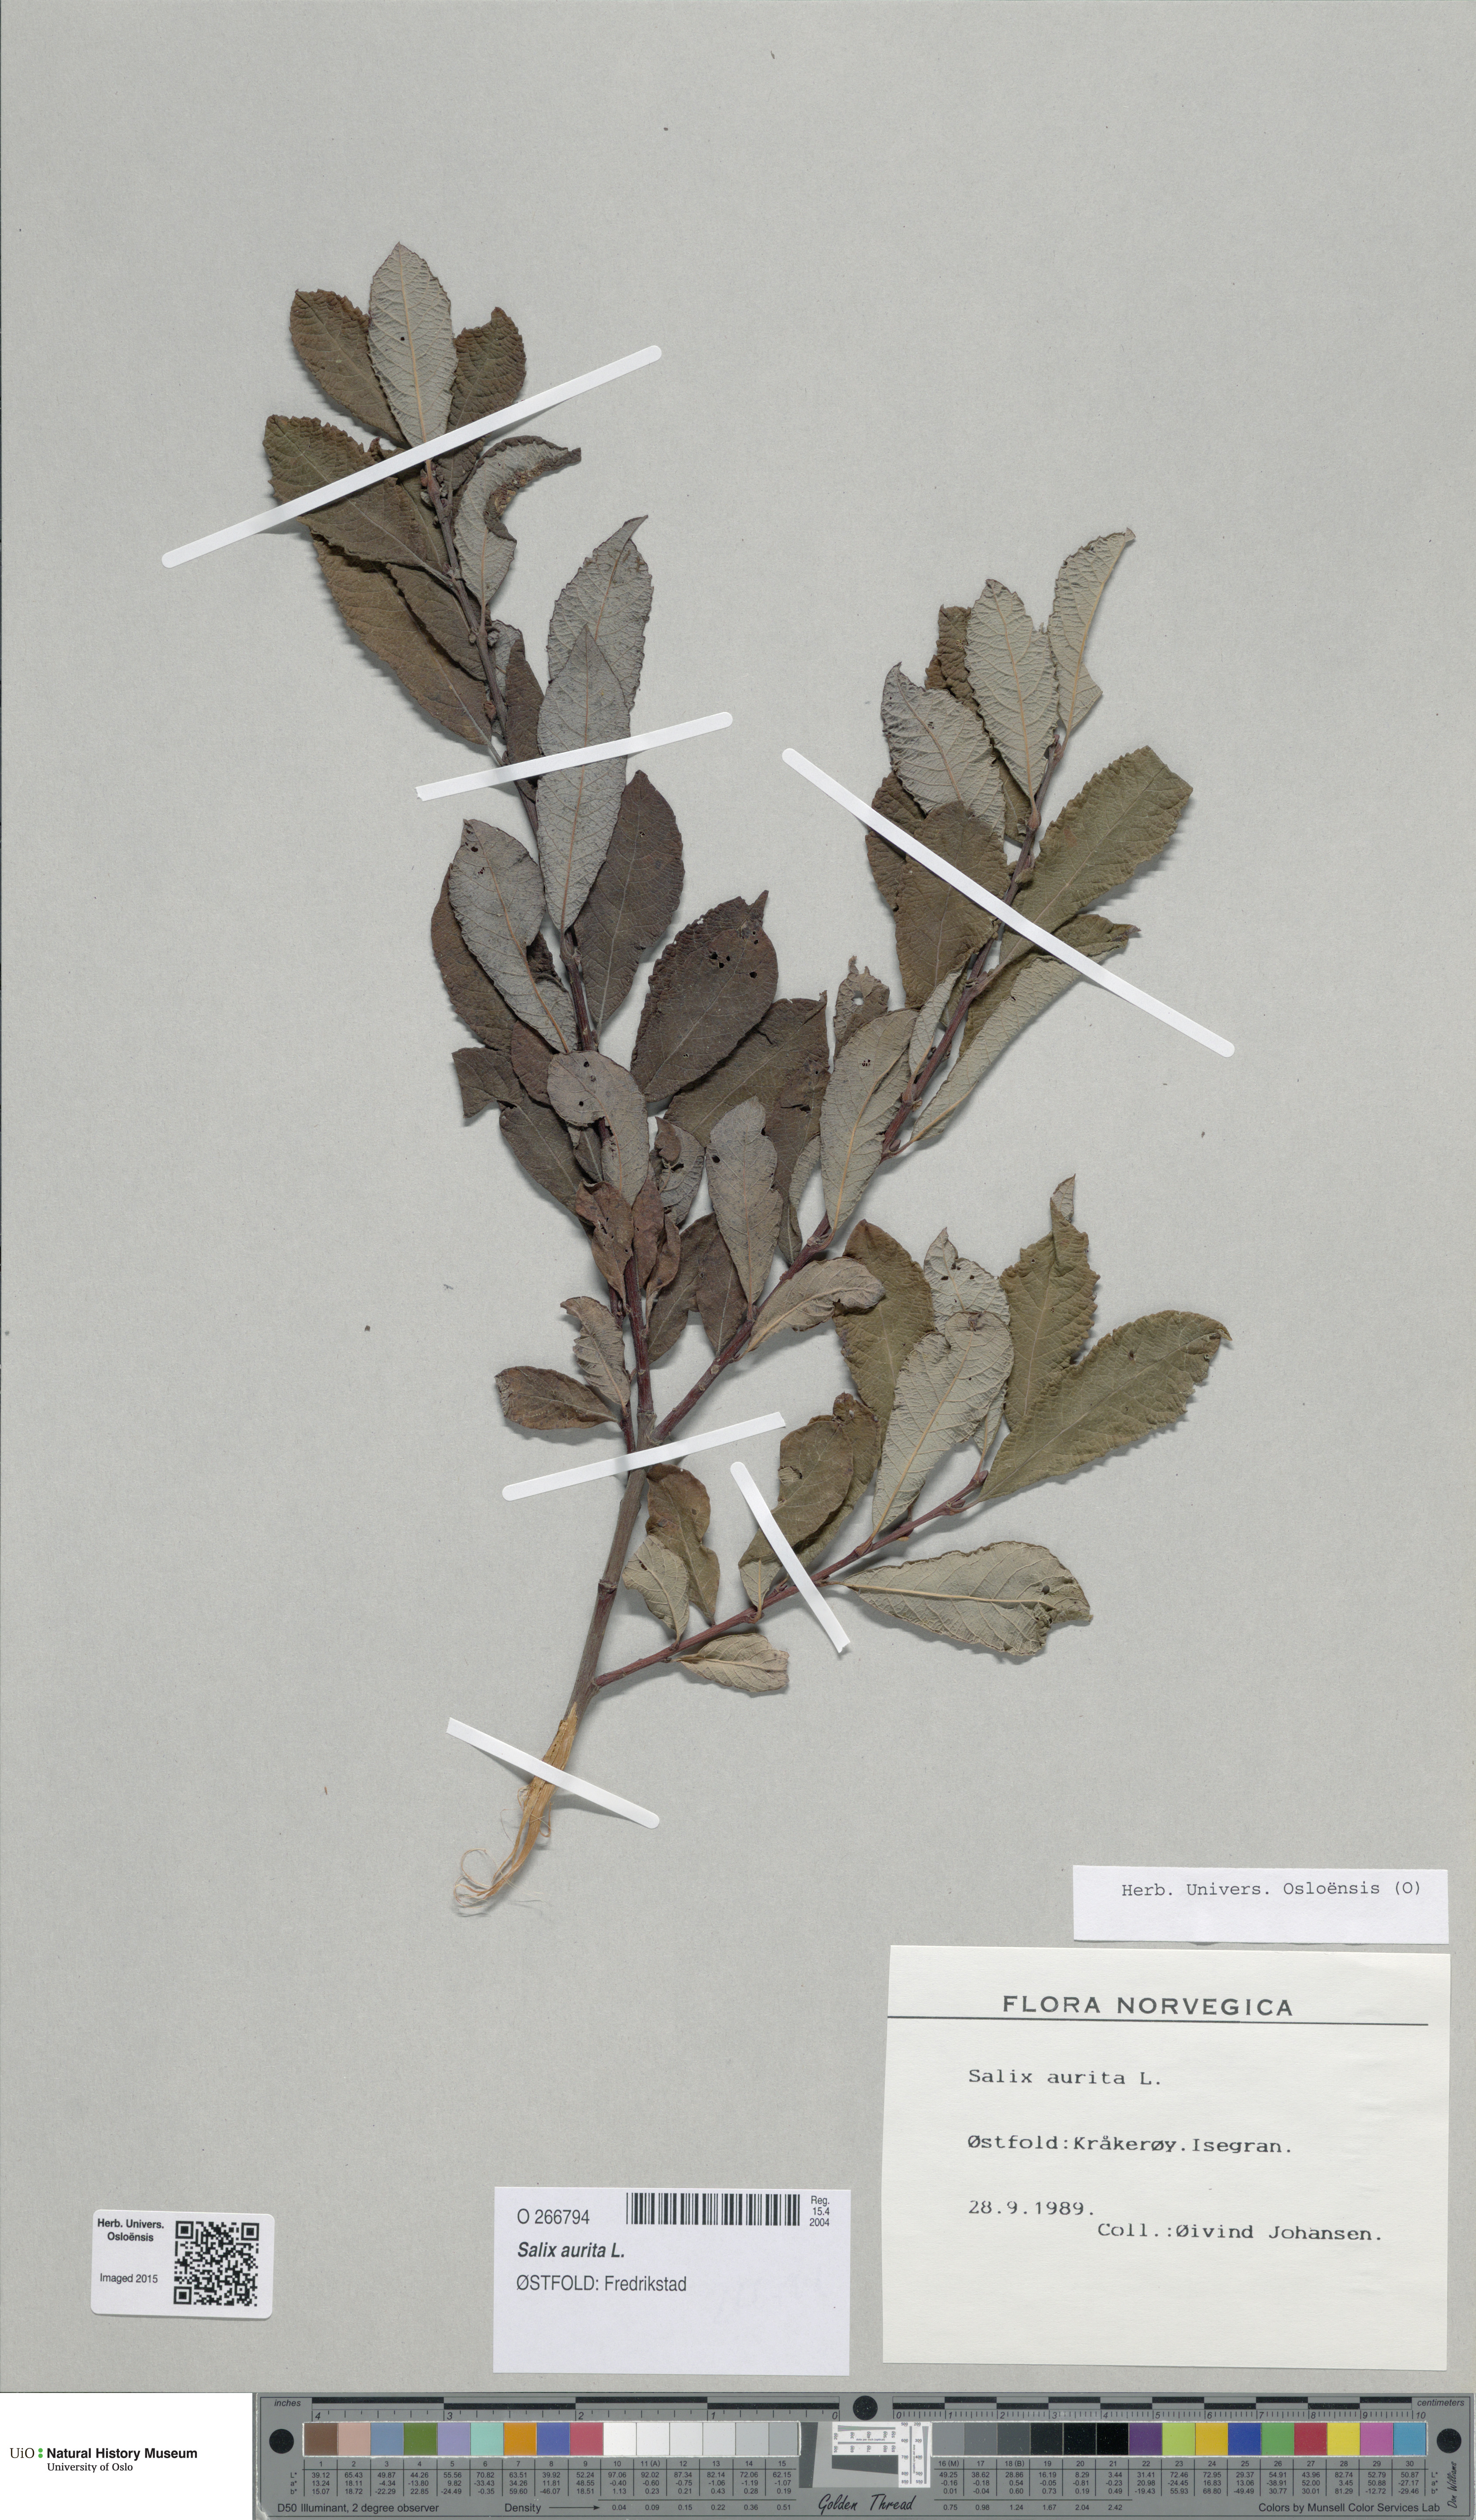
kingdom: Plantae
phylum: Tracheophyta
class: Magnoliopsida
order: Malpighiales
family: Salicaceae
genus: Salix
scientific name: Salix aurita
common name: Eared willow
